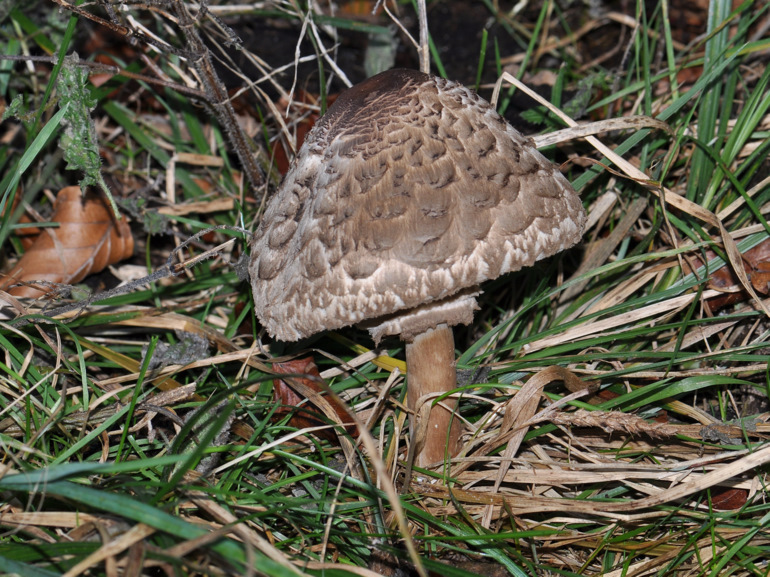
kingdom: Fungi
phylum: Basidiomycota
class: Agaricomycetes
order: Agaricales
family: Agaricaceae
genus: Chlorophyllum
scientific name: Chlorophyllum olivieri
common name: almindelig rabarberhat
